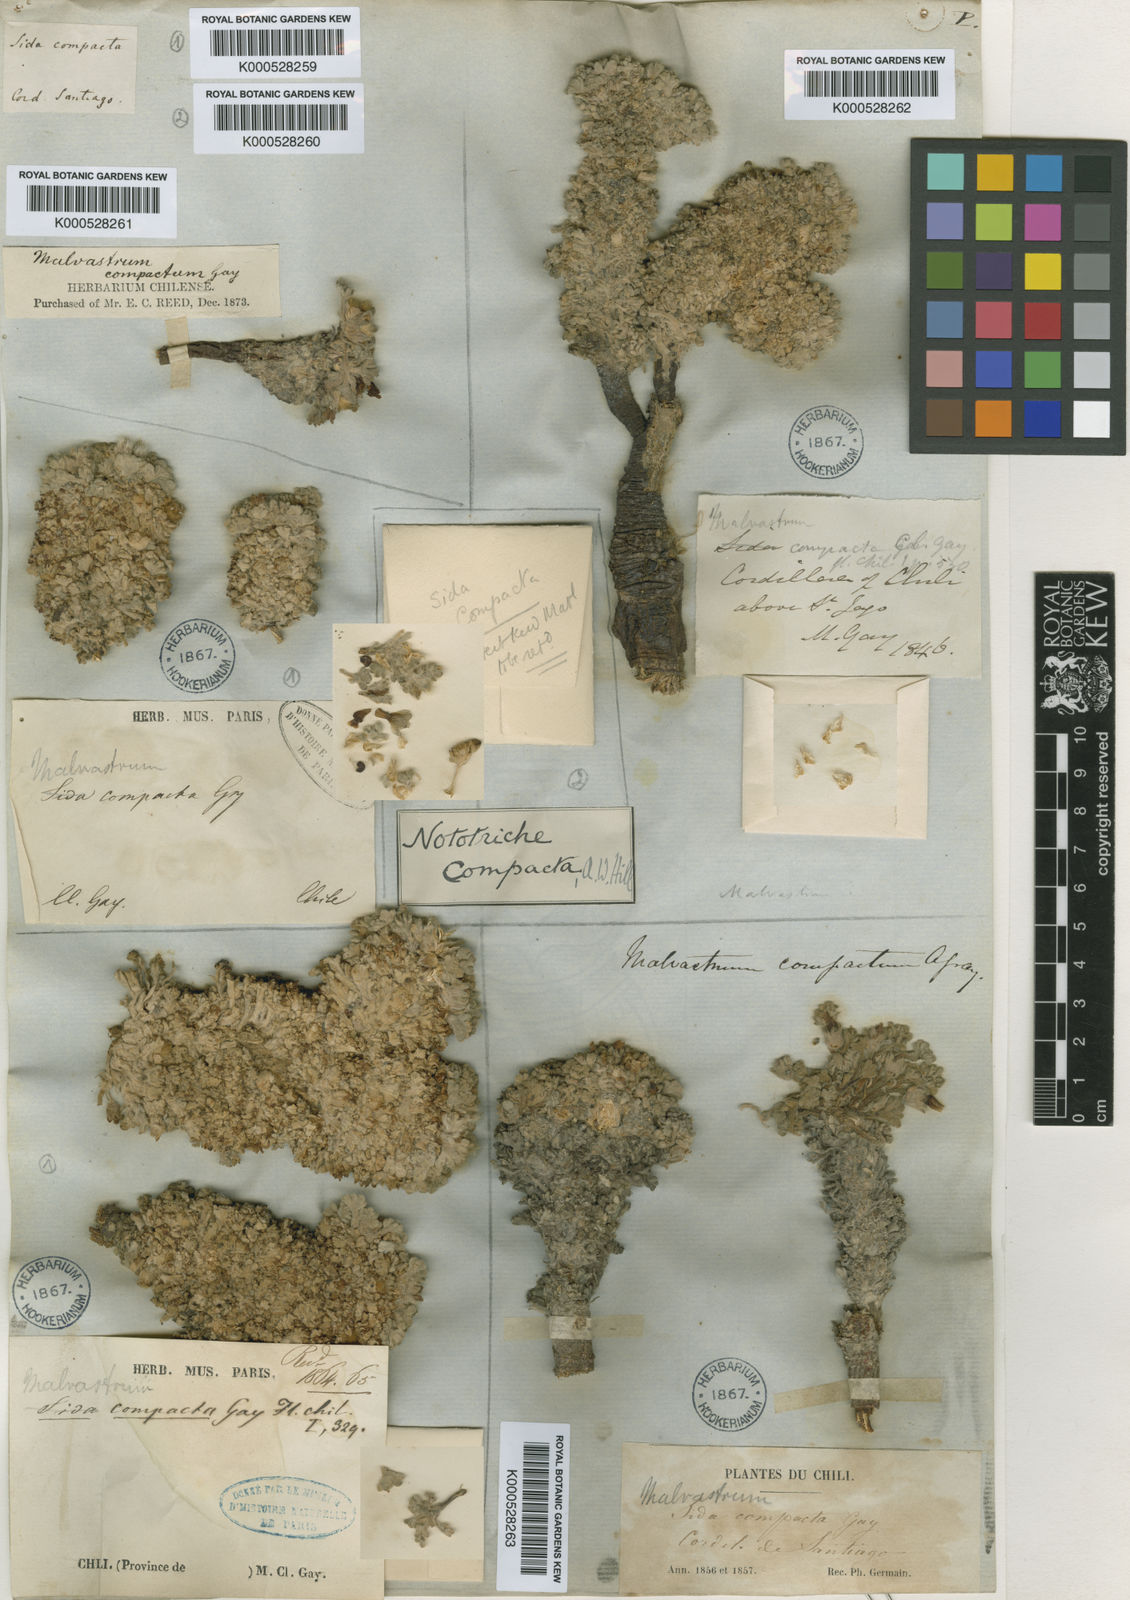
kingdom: Plantae
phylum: Tracheophyta
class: Magnoliopsida
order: Malvales
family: Malvaceae
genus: Nototriche
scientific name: Nototriche compacta
